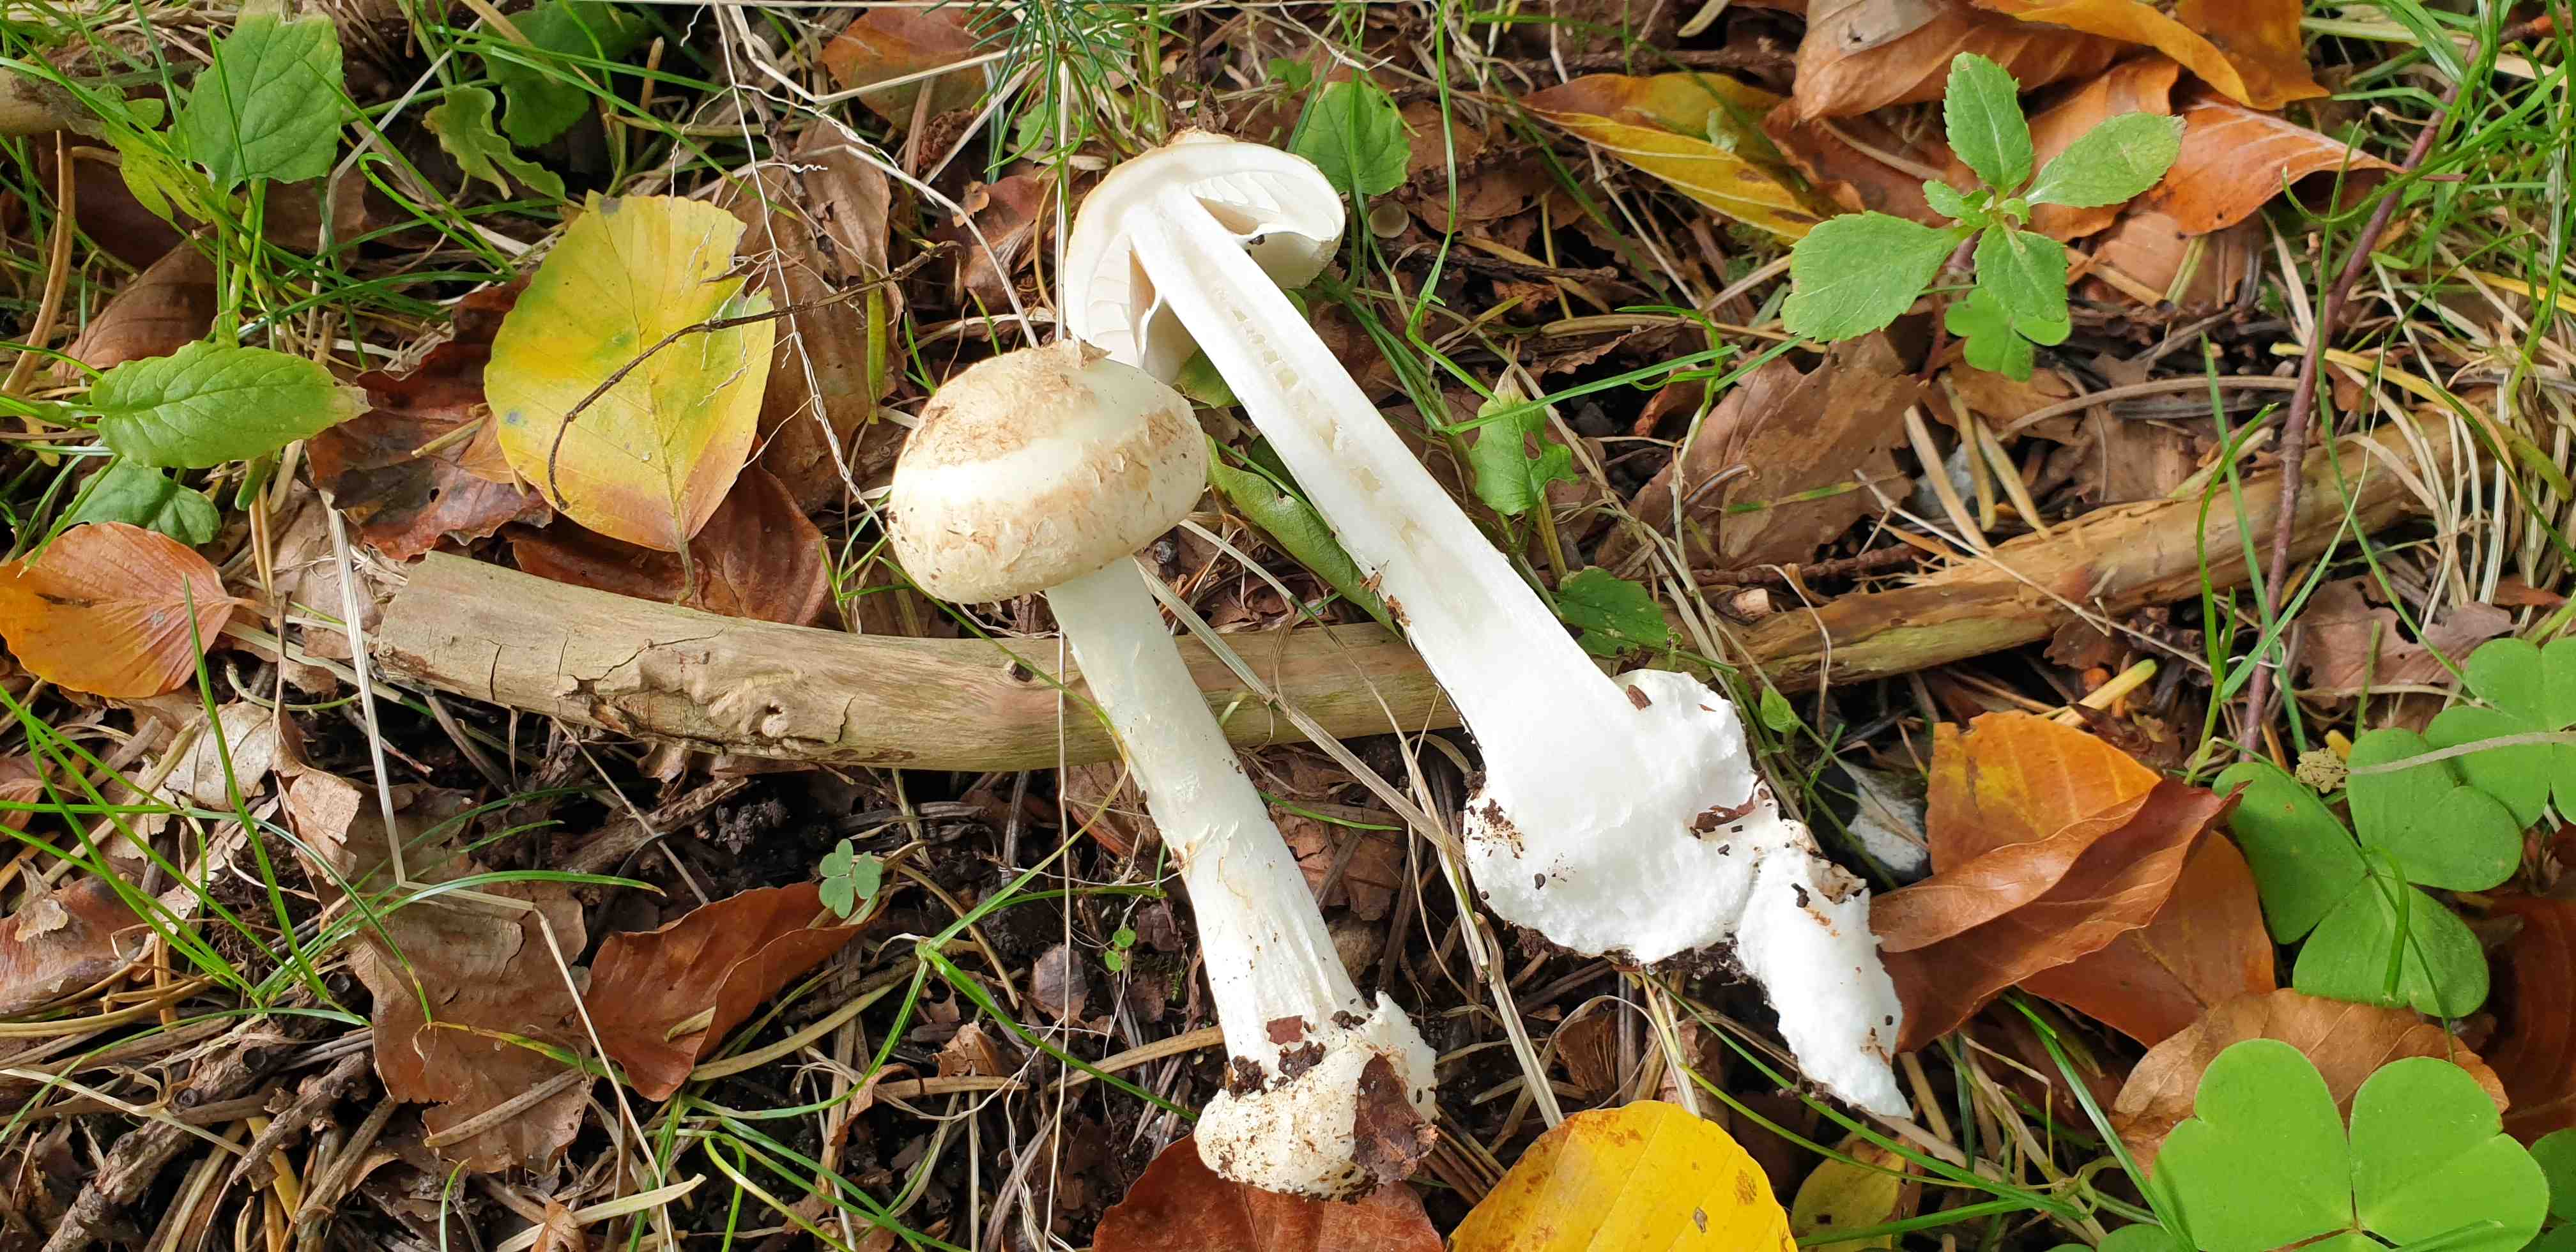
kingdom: Fungi
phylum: Basidiomycota
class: Agaricomycetes
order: Agaricales
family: Amanitaceae
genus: Amanita
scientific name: Amanita citrina
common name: kugleknoldet fluesvamp
